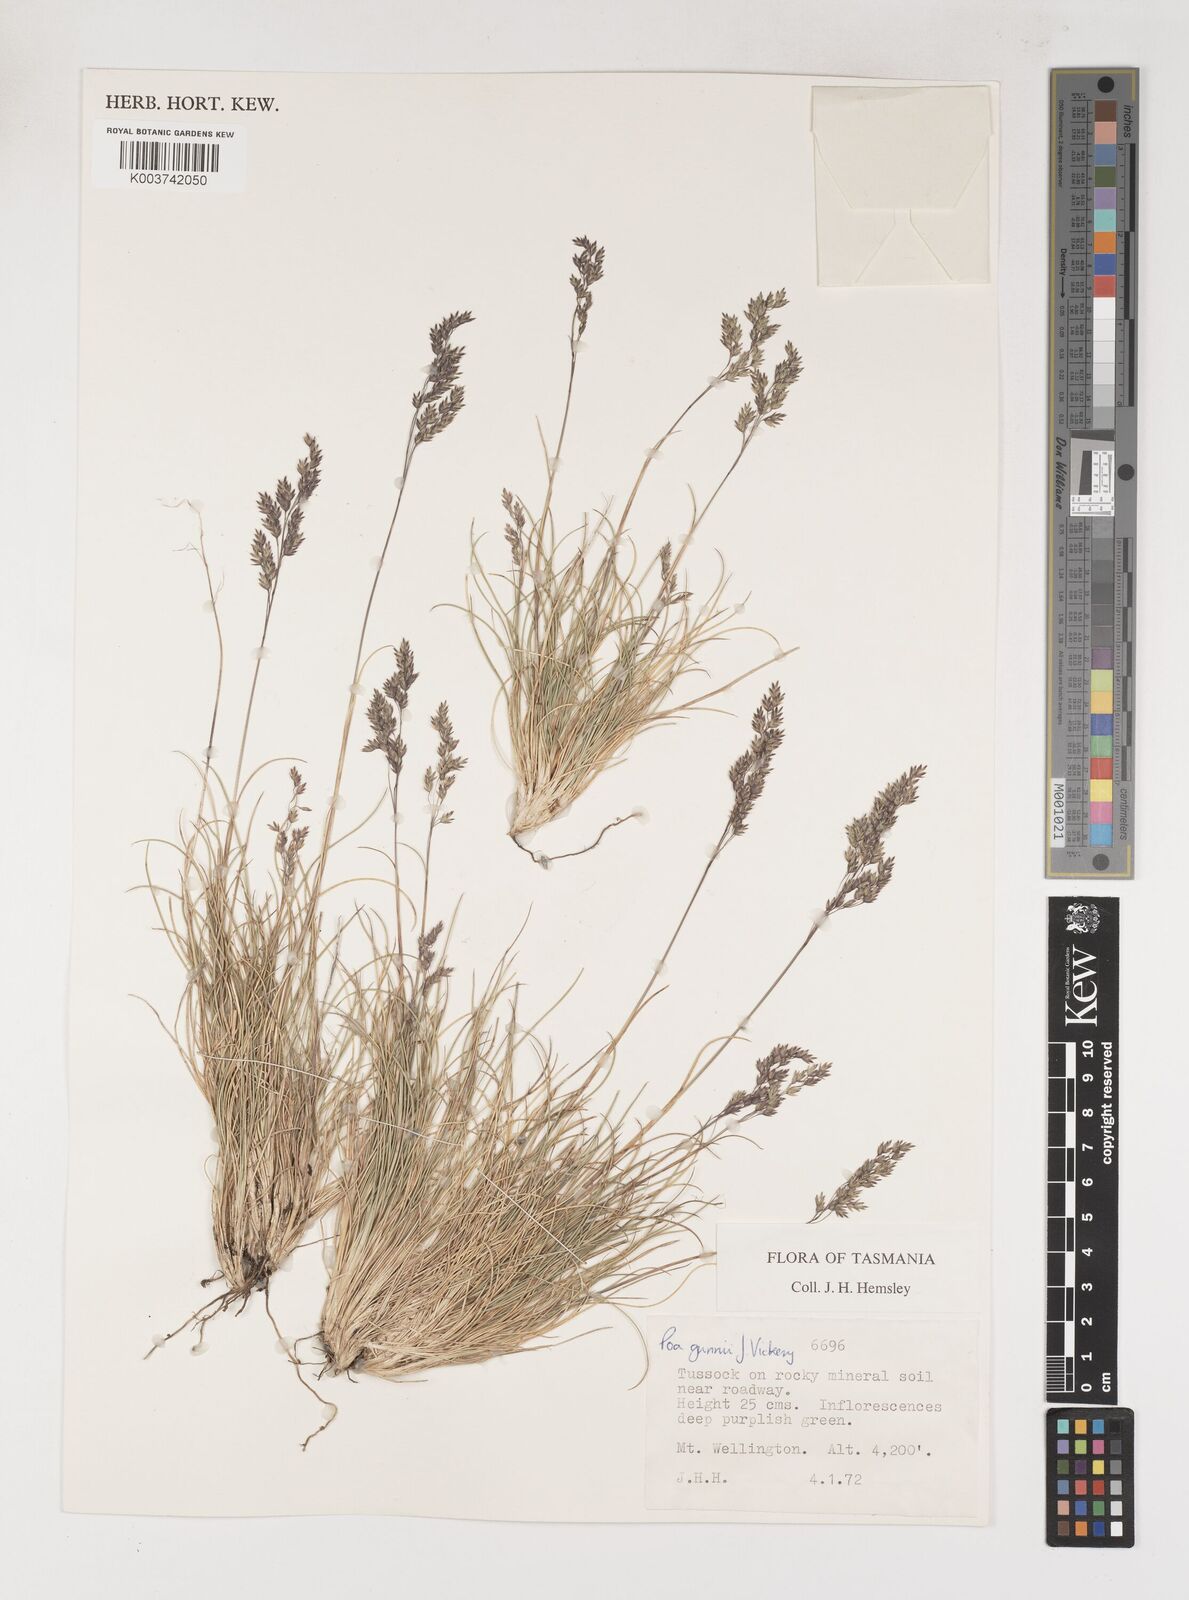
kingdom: Plantae
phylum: Tracheophyta
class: Liliopsida
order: Poales
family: Poaceae
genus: Poa
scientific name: Poa gunnii
